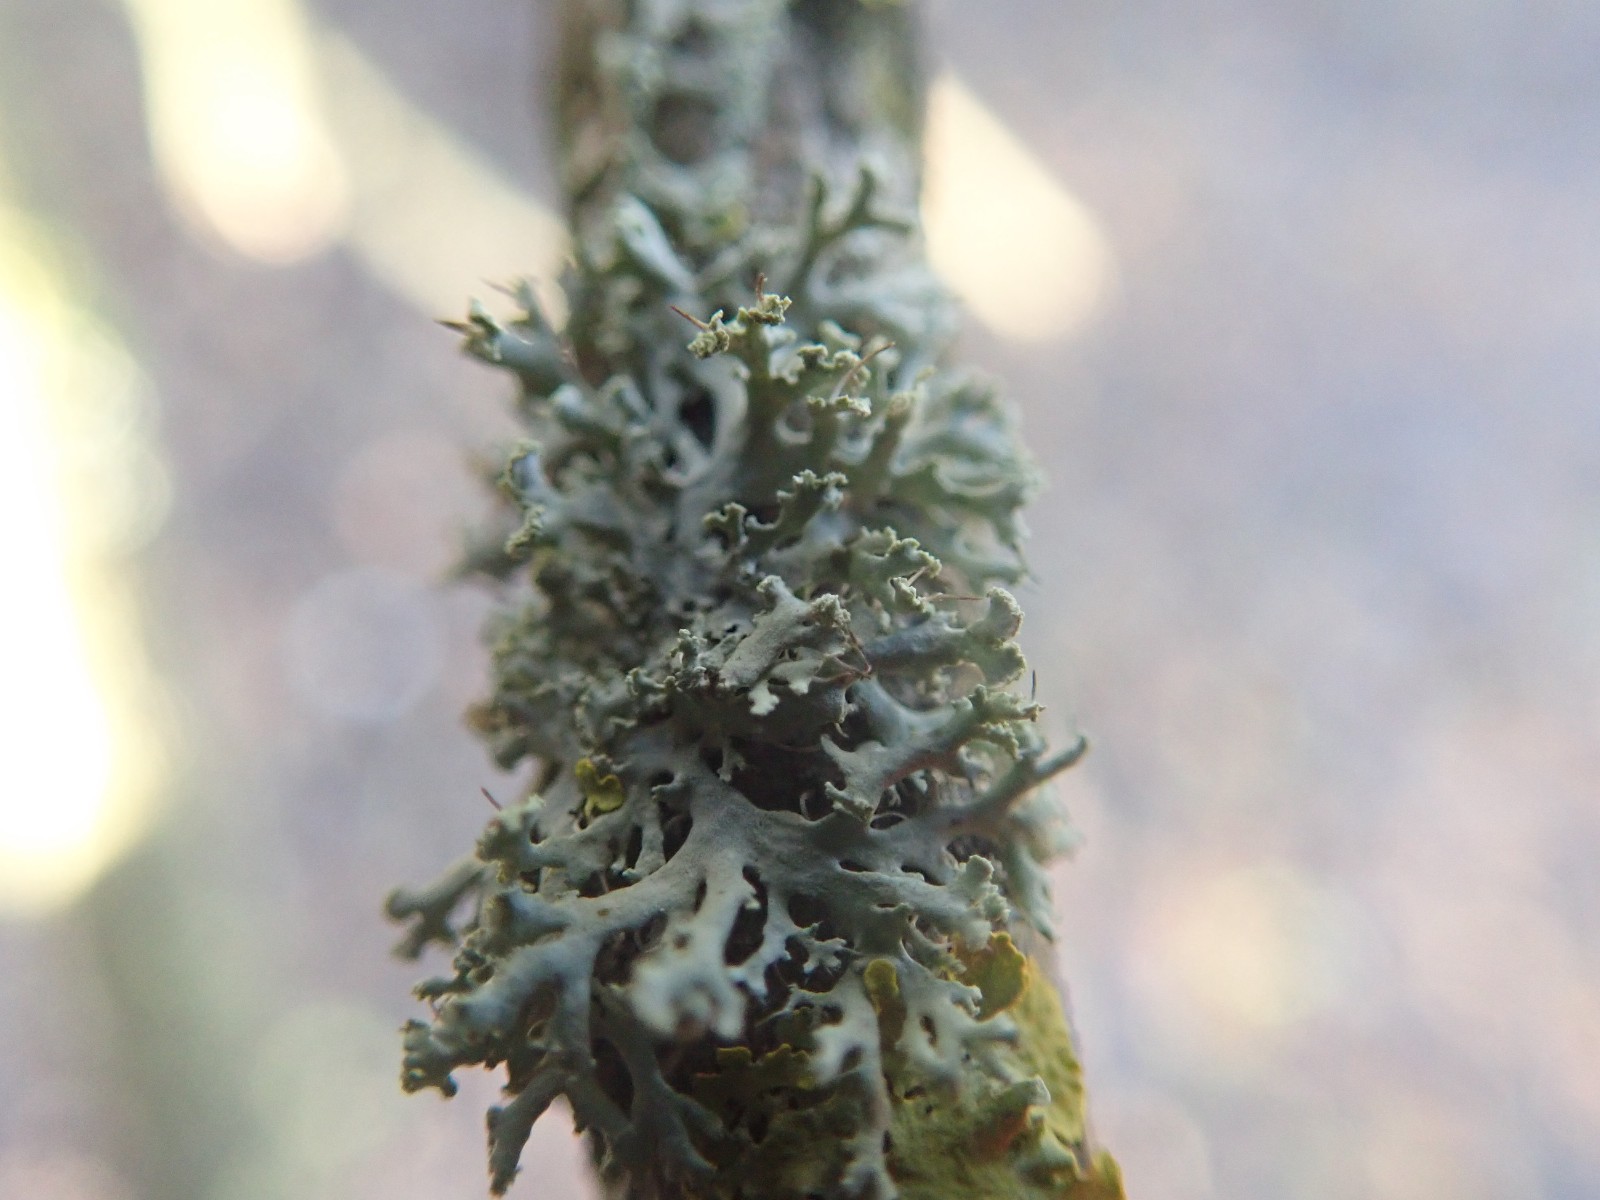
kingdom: Fungi
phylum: Ascomycota
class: Lecanoromycetes
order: Caliciales
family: Physciaceae
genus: Physcia
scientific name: Physcia tenella
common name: spæd rosetlav
